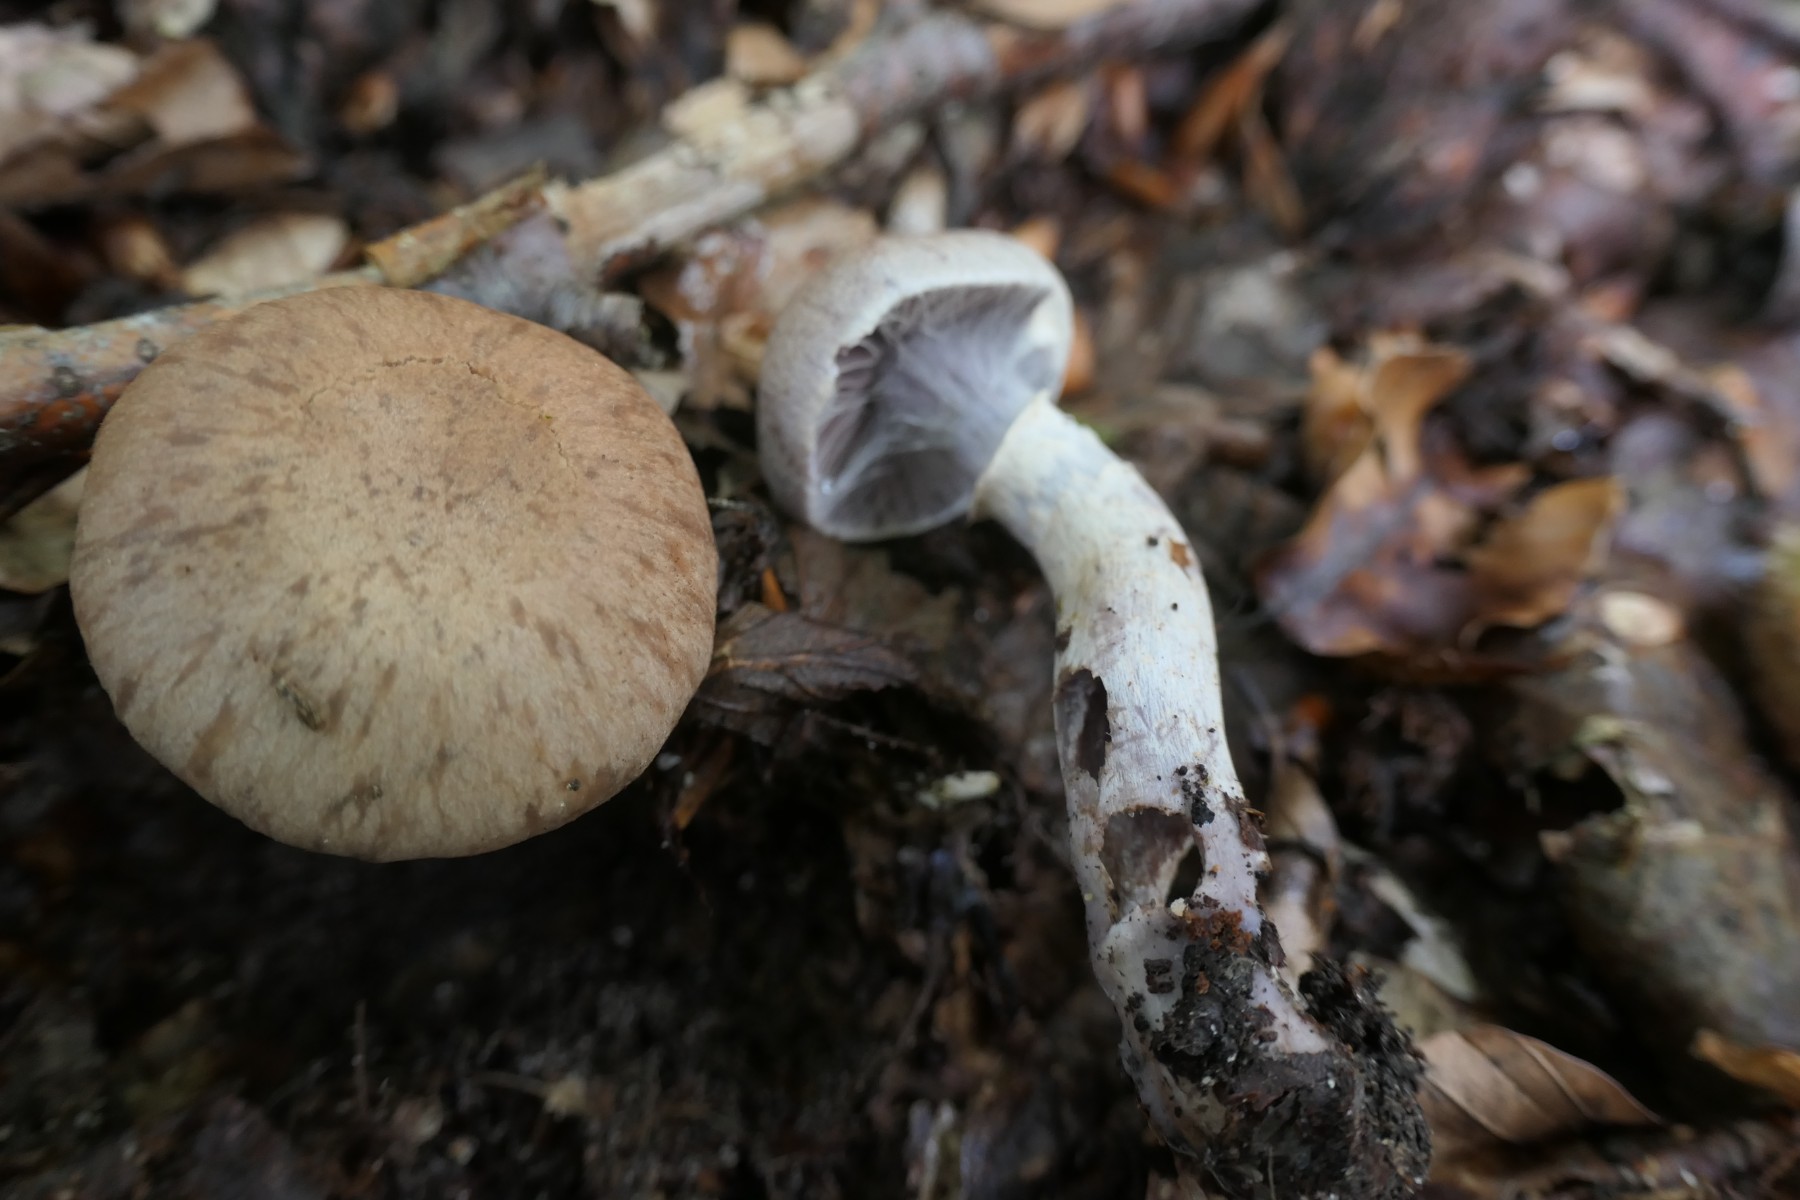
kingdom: Fungi
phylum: Basidiomycota
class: Agaricomycetes
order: Agaricales
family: Cortinariaceae
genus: Cortinarius
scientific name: Cortinarius torvus
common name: champignonagtig slørhat
